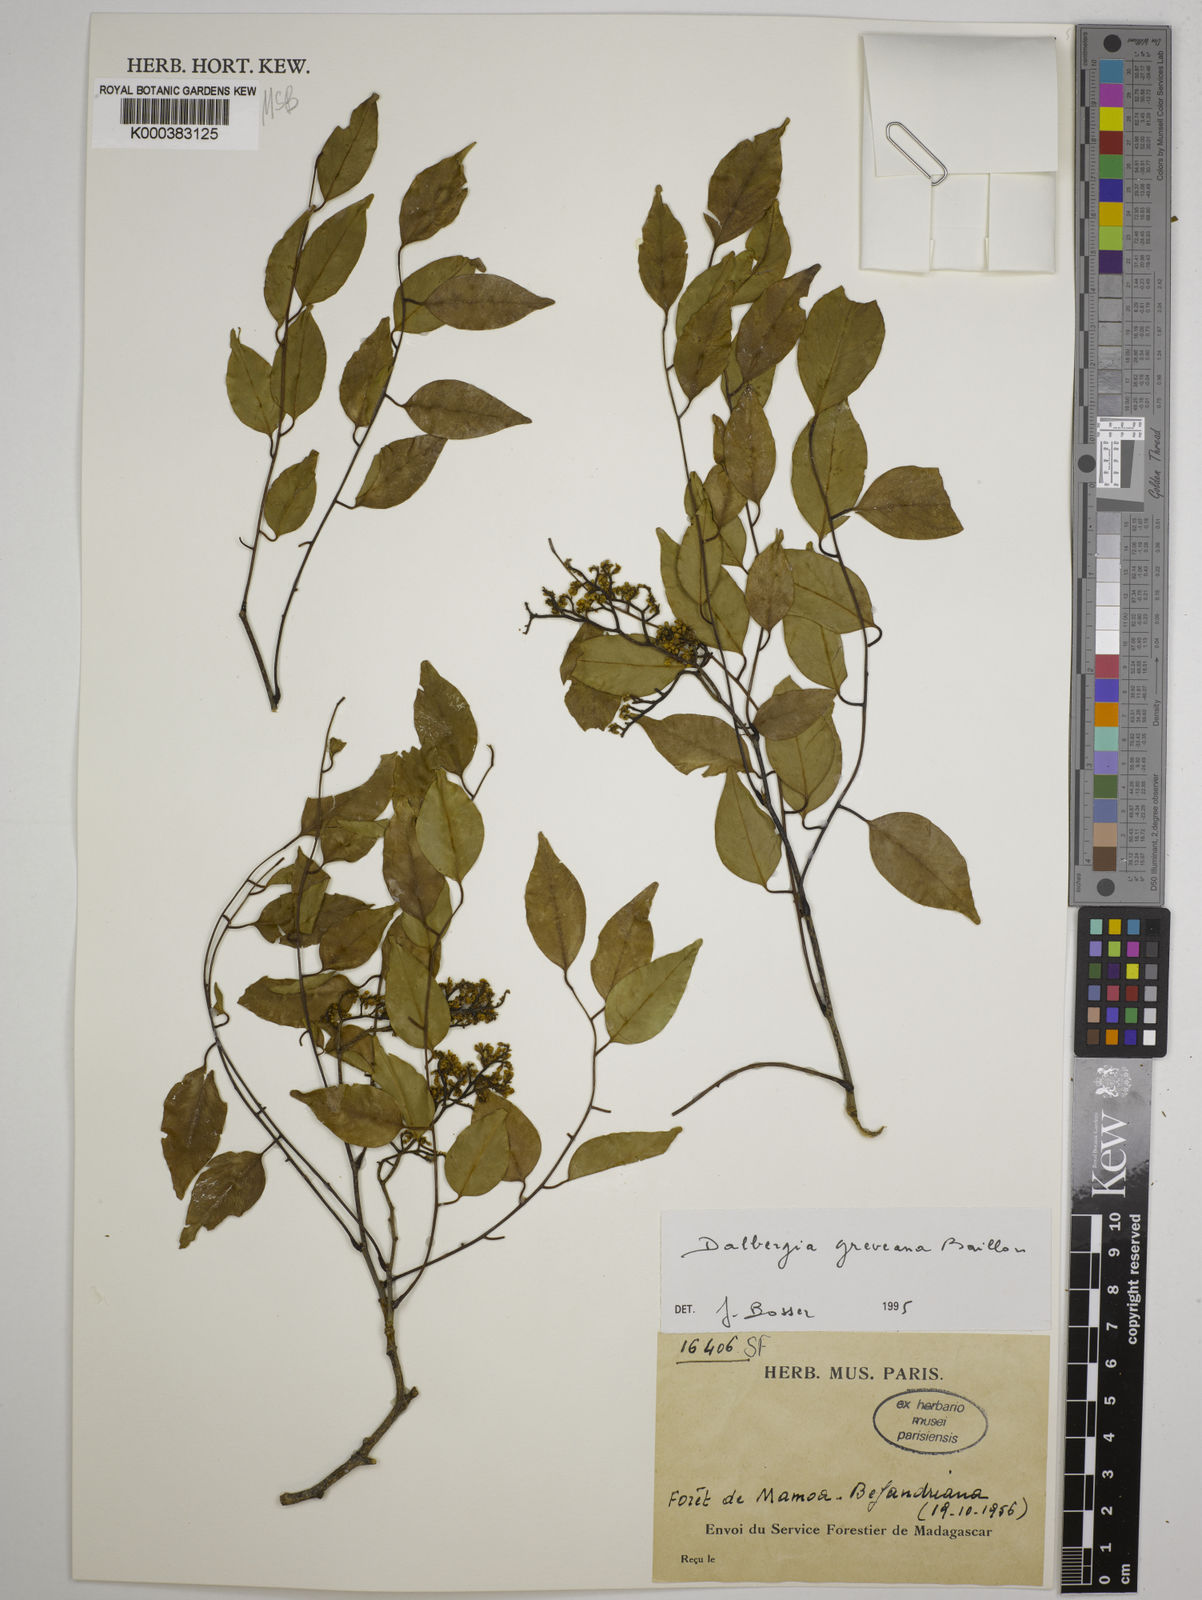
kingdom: Plantae
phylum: Tracheophyta
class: Magnoliopsida
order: Fabales
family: Fabaceae
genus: Dalbergia
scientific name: Dalbergia greveana
